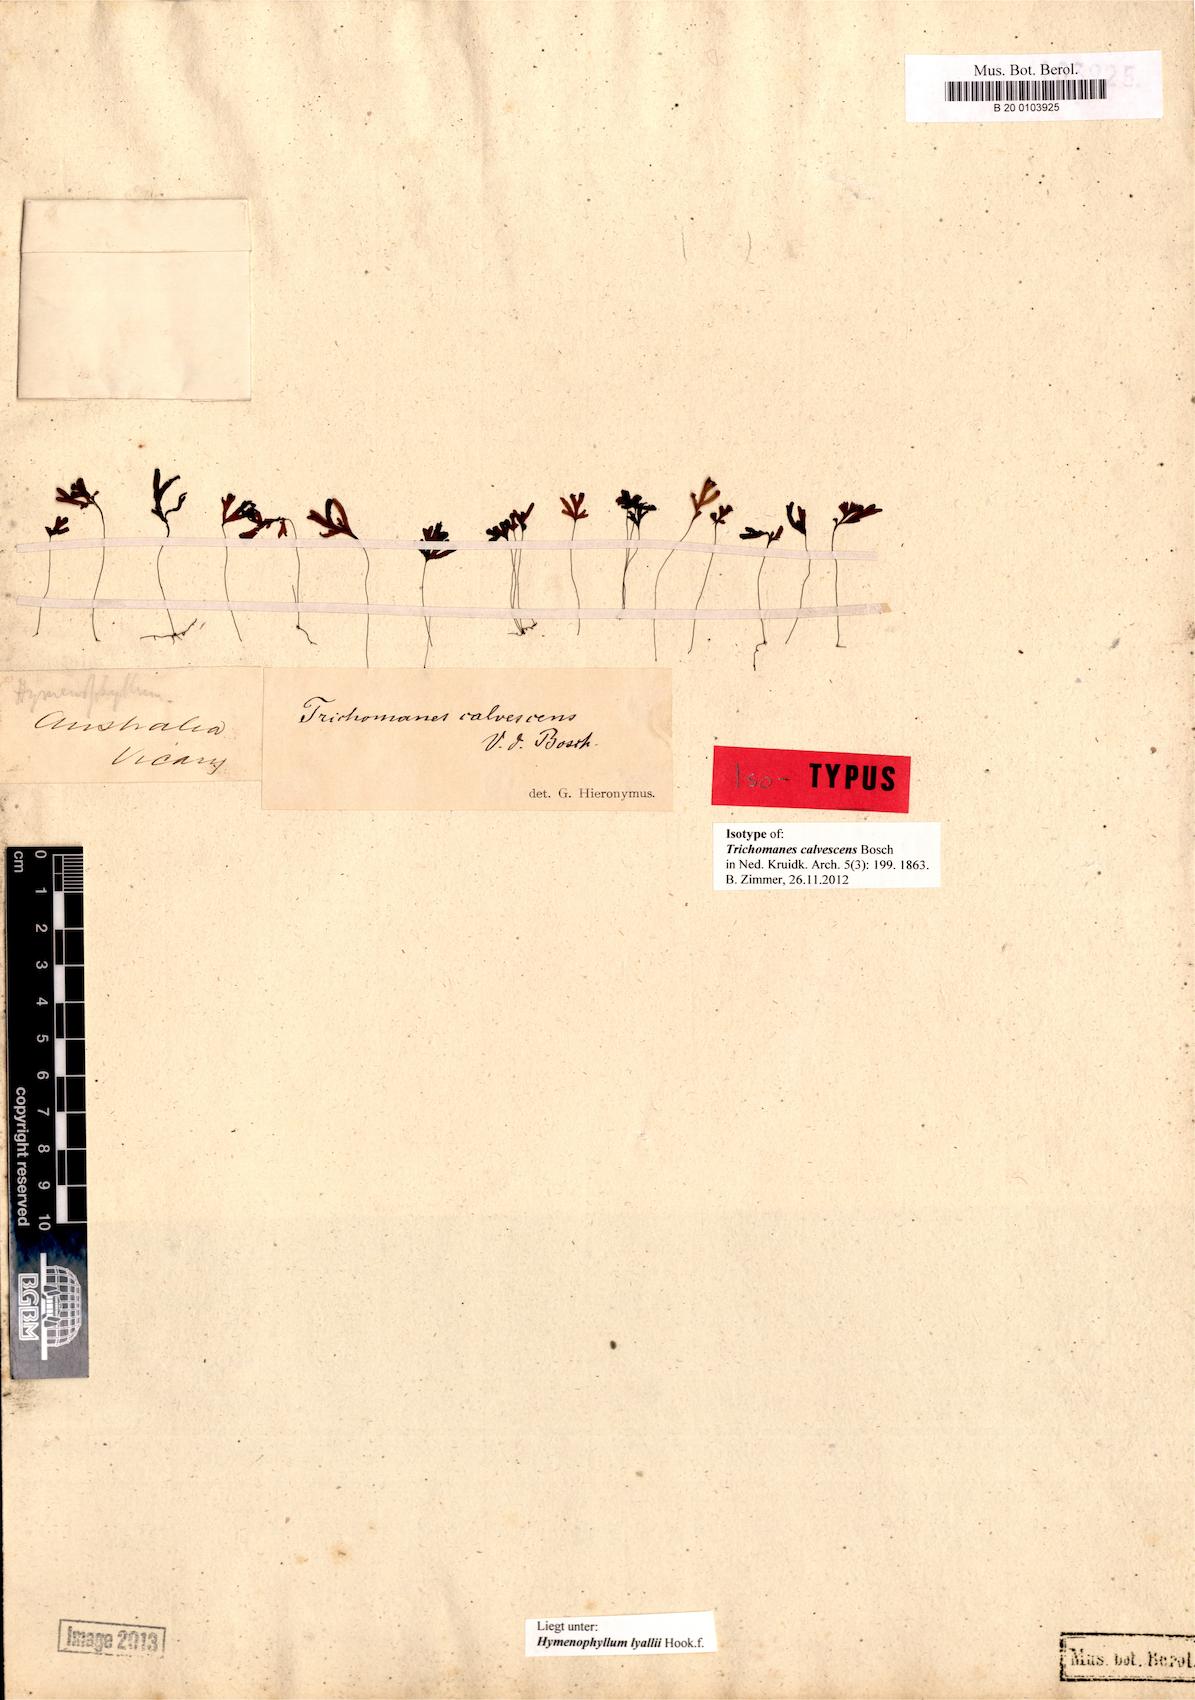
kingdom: Plantae
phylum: Tracheophyta
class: Polypodiopsida
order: Hymenophyllales
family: Hymenophyllaceae
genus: Hymenophyllum
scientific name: Hymenophyllum lyallii
